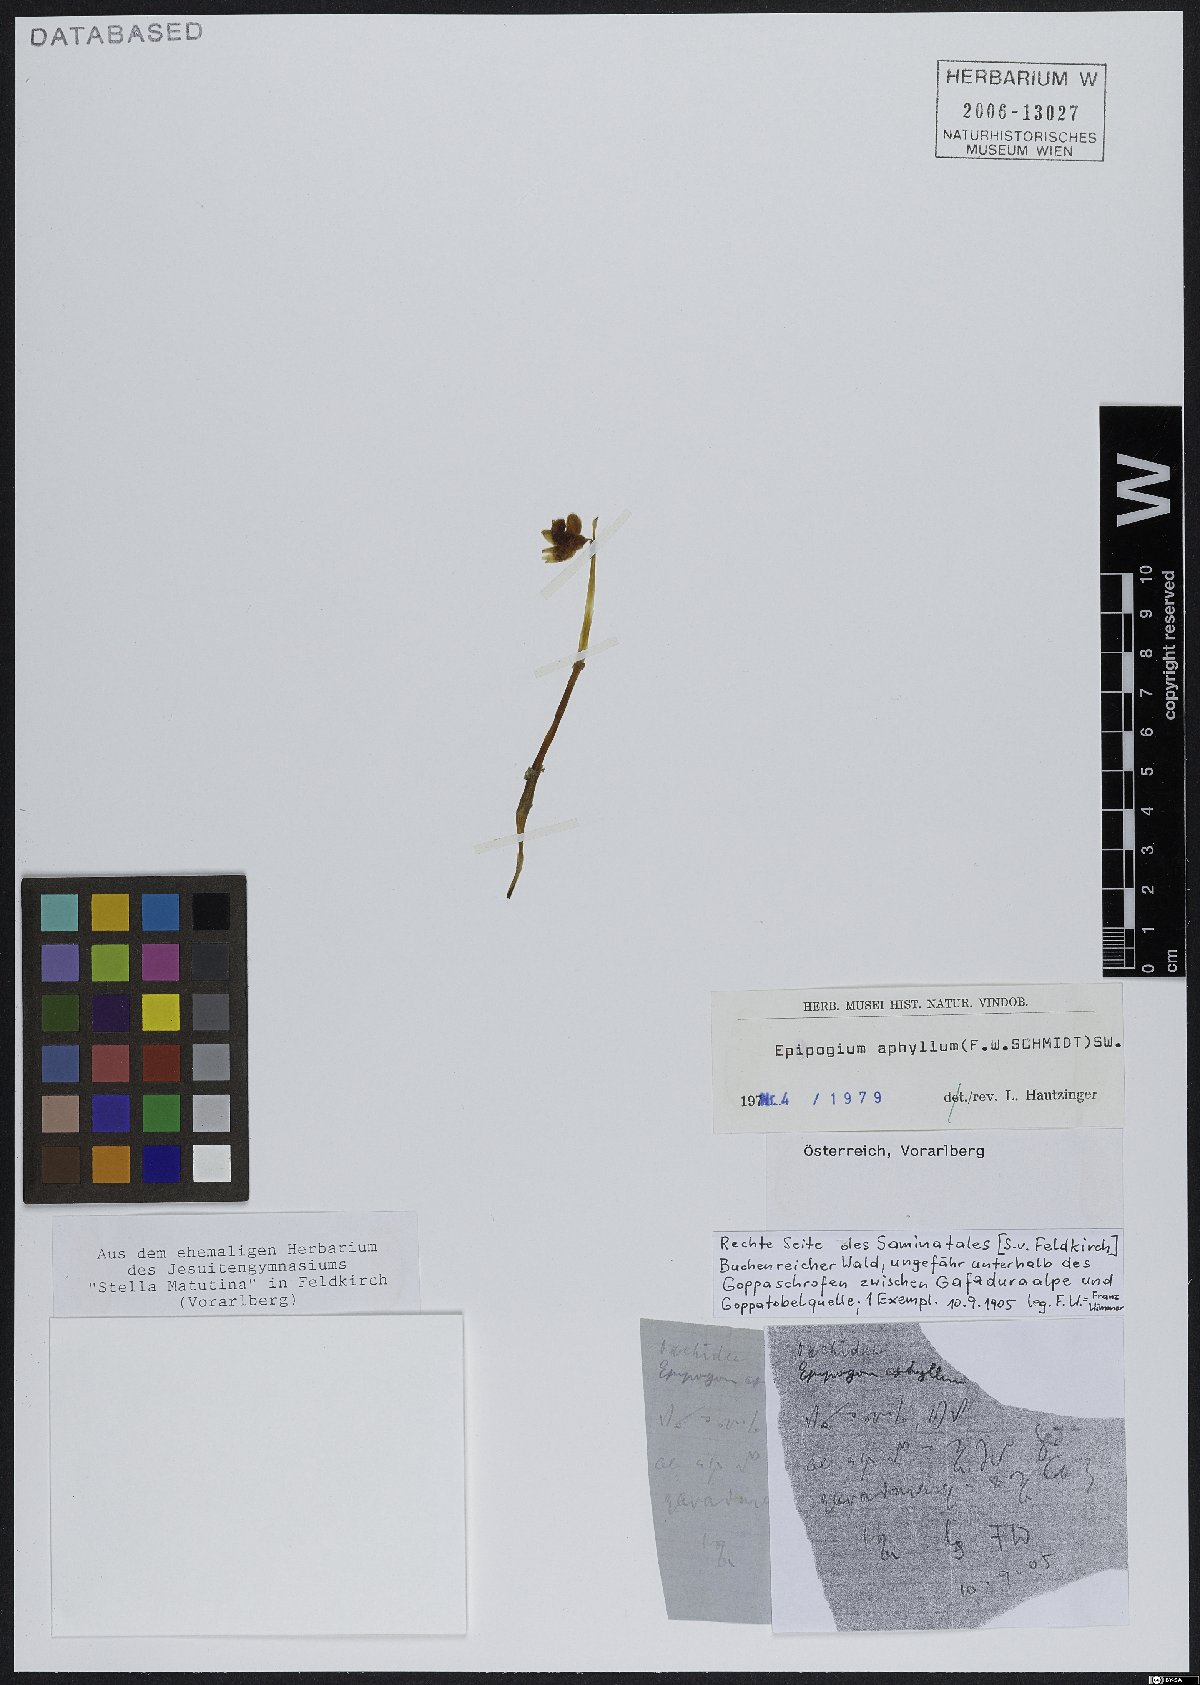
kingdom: Plantae
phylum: Tracheophyta
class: Liliopsida
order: Asparagales
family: Orchidaceae
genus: Epipogium
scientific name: Epipogium aphyllum
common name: Ghost orchid
